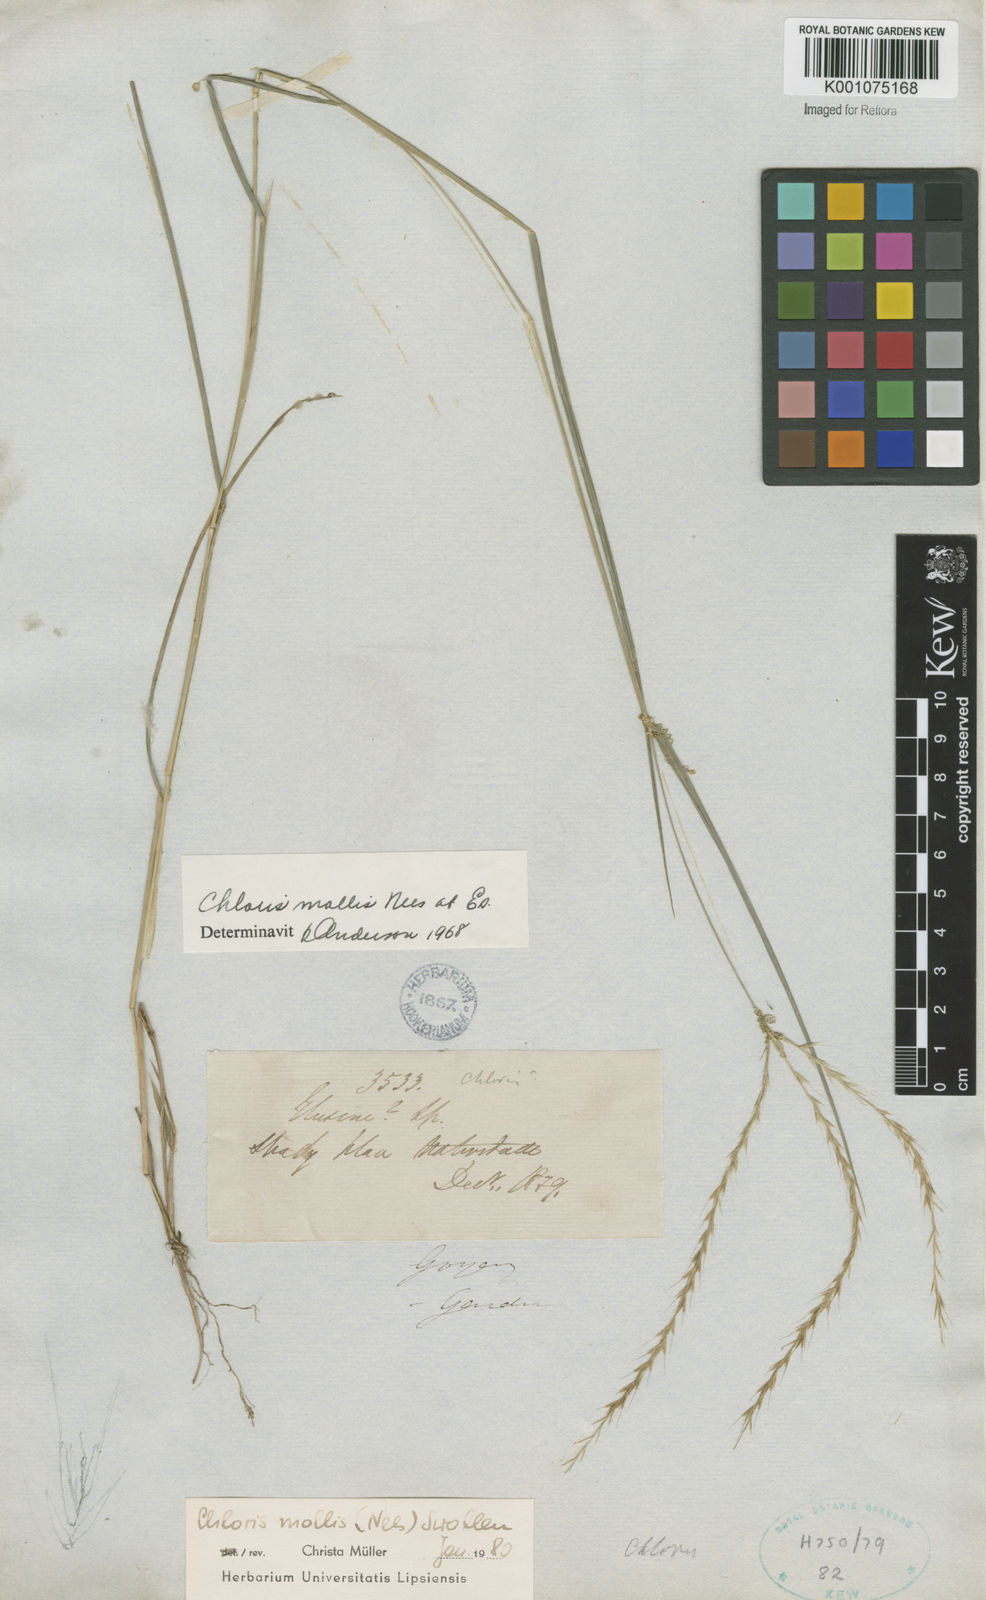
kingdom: Plantae
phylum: Tracheophyta
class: Liliopsida
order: Poales
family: Poaceae
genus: Leptochloa
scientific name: Leptochloa anisopoda
